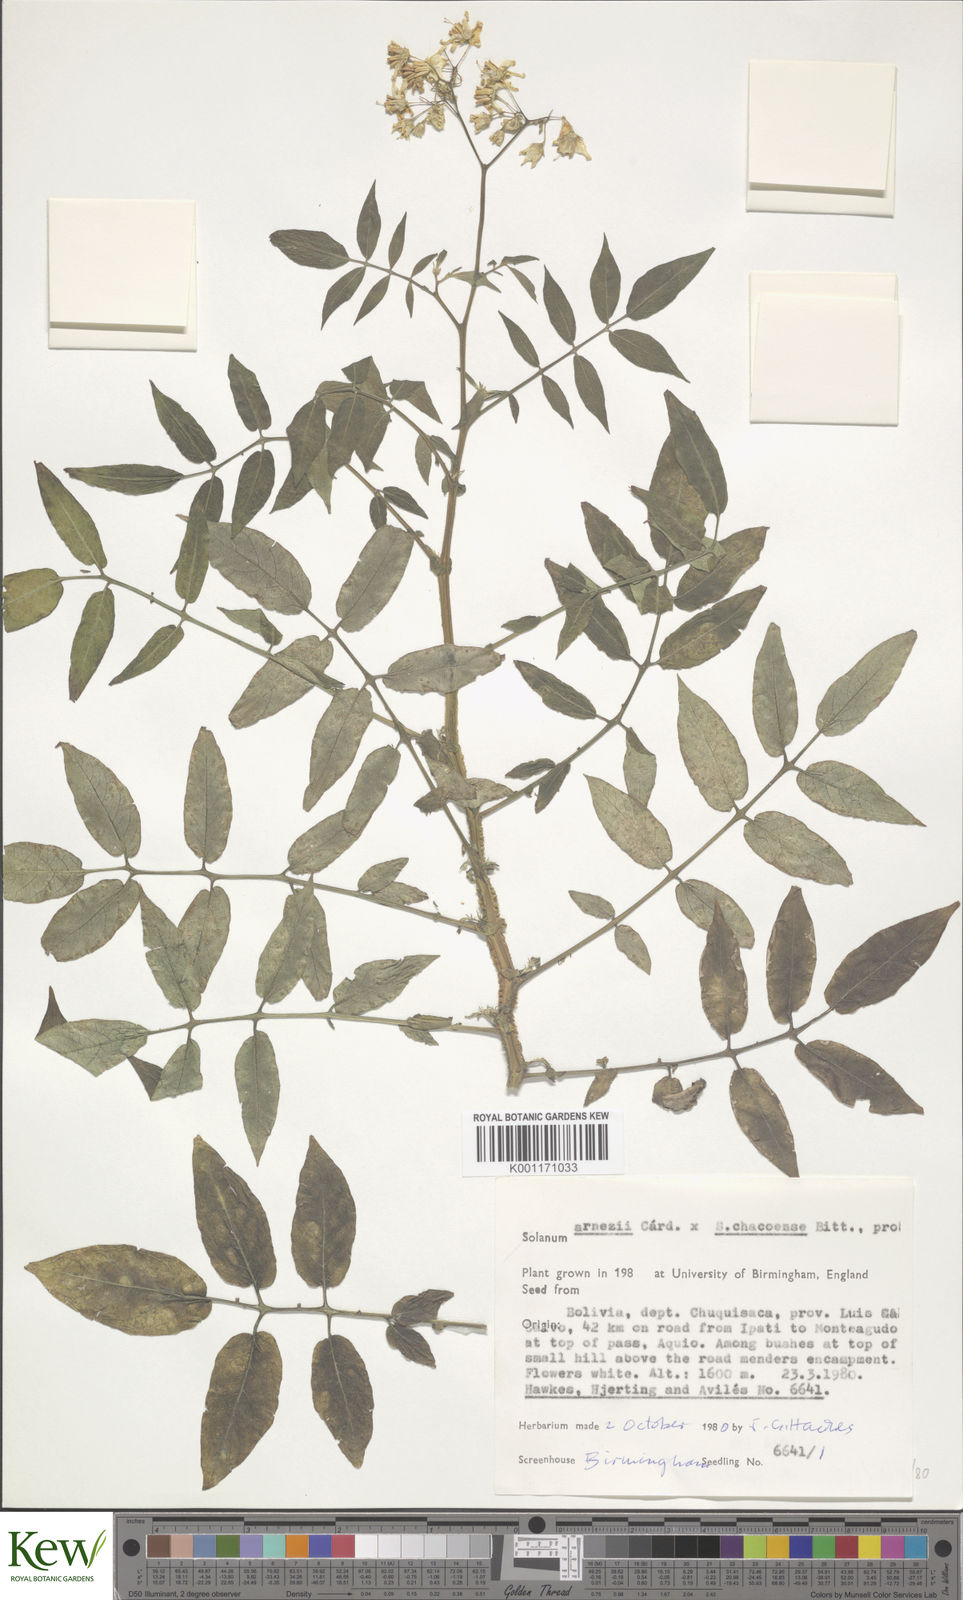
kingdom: Plantae
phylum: Tracheophyta
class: Magnoliopsida
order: Solanales
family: Solanaceae
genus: Solanum
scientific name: Solanum
